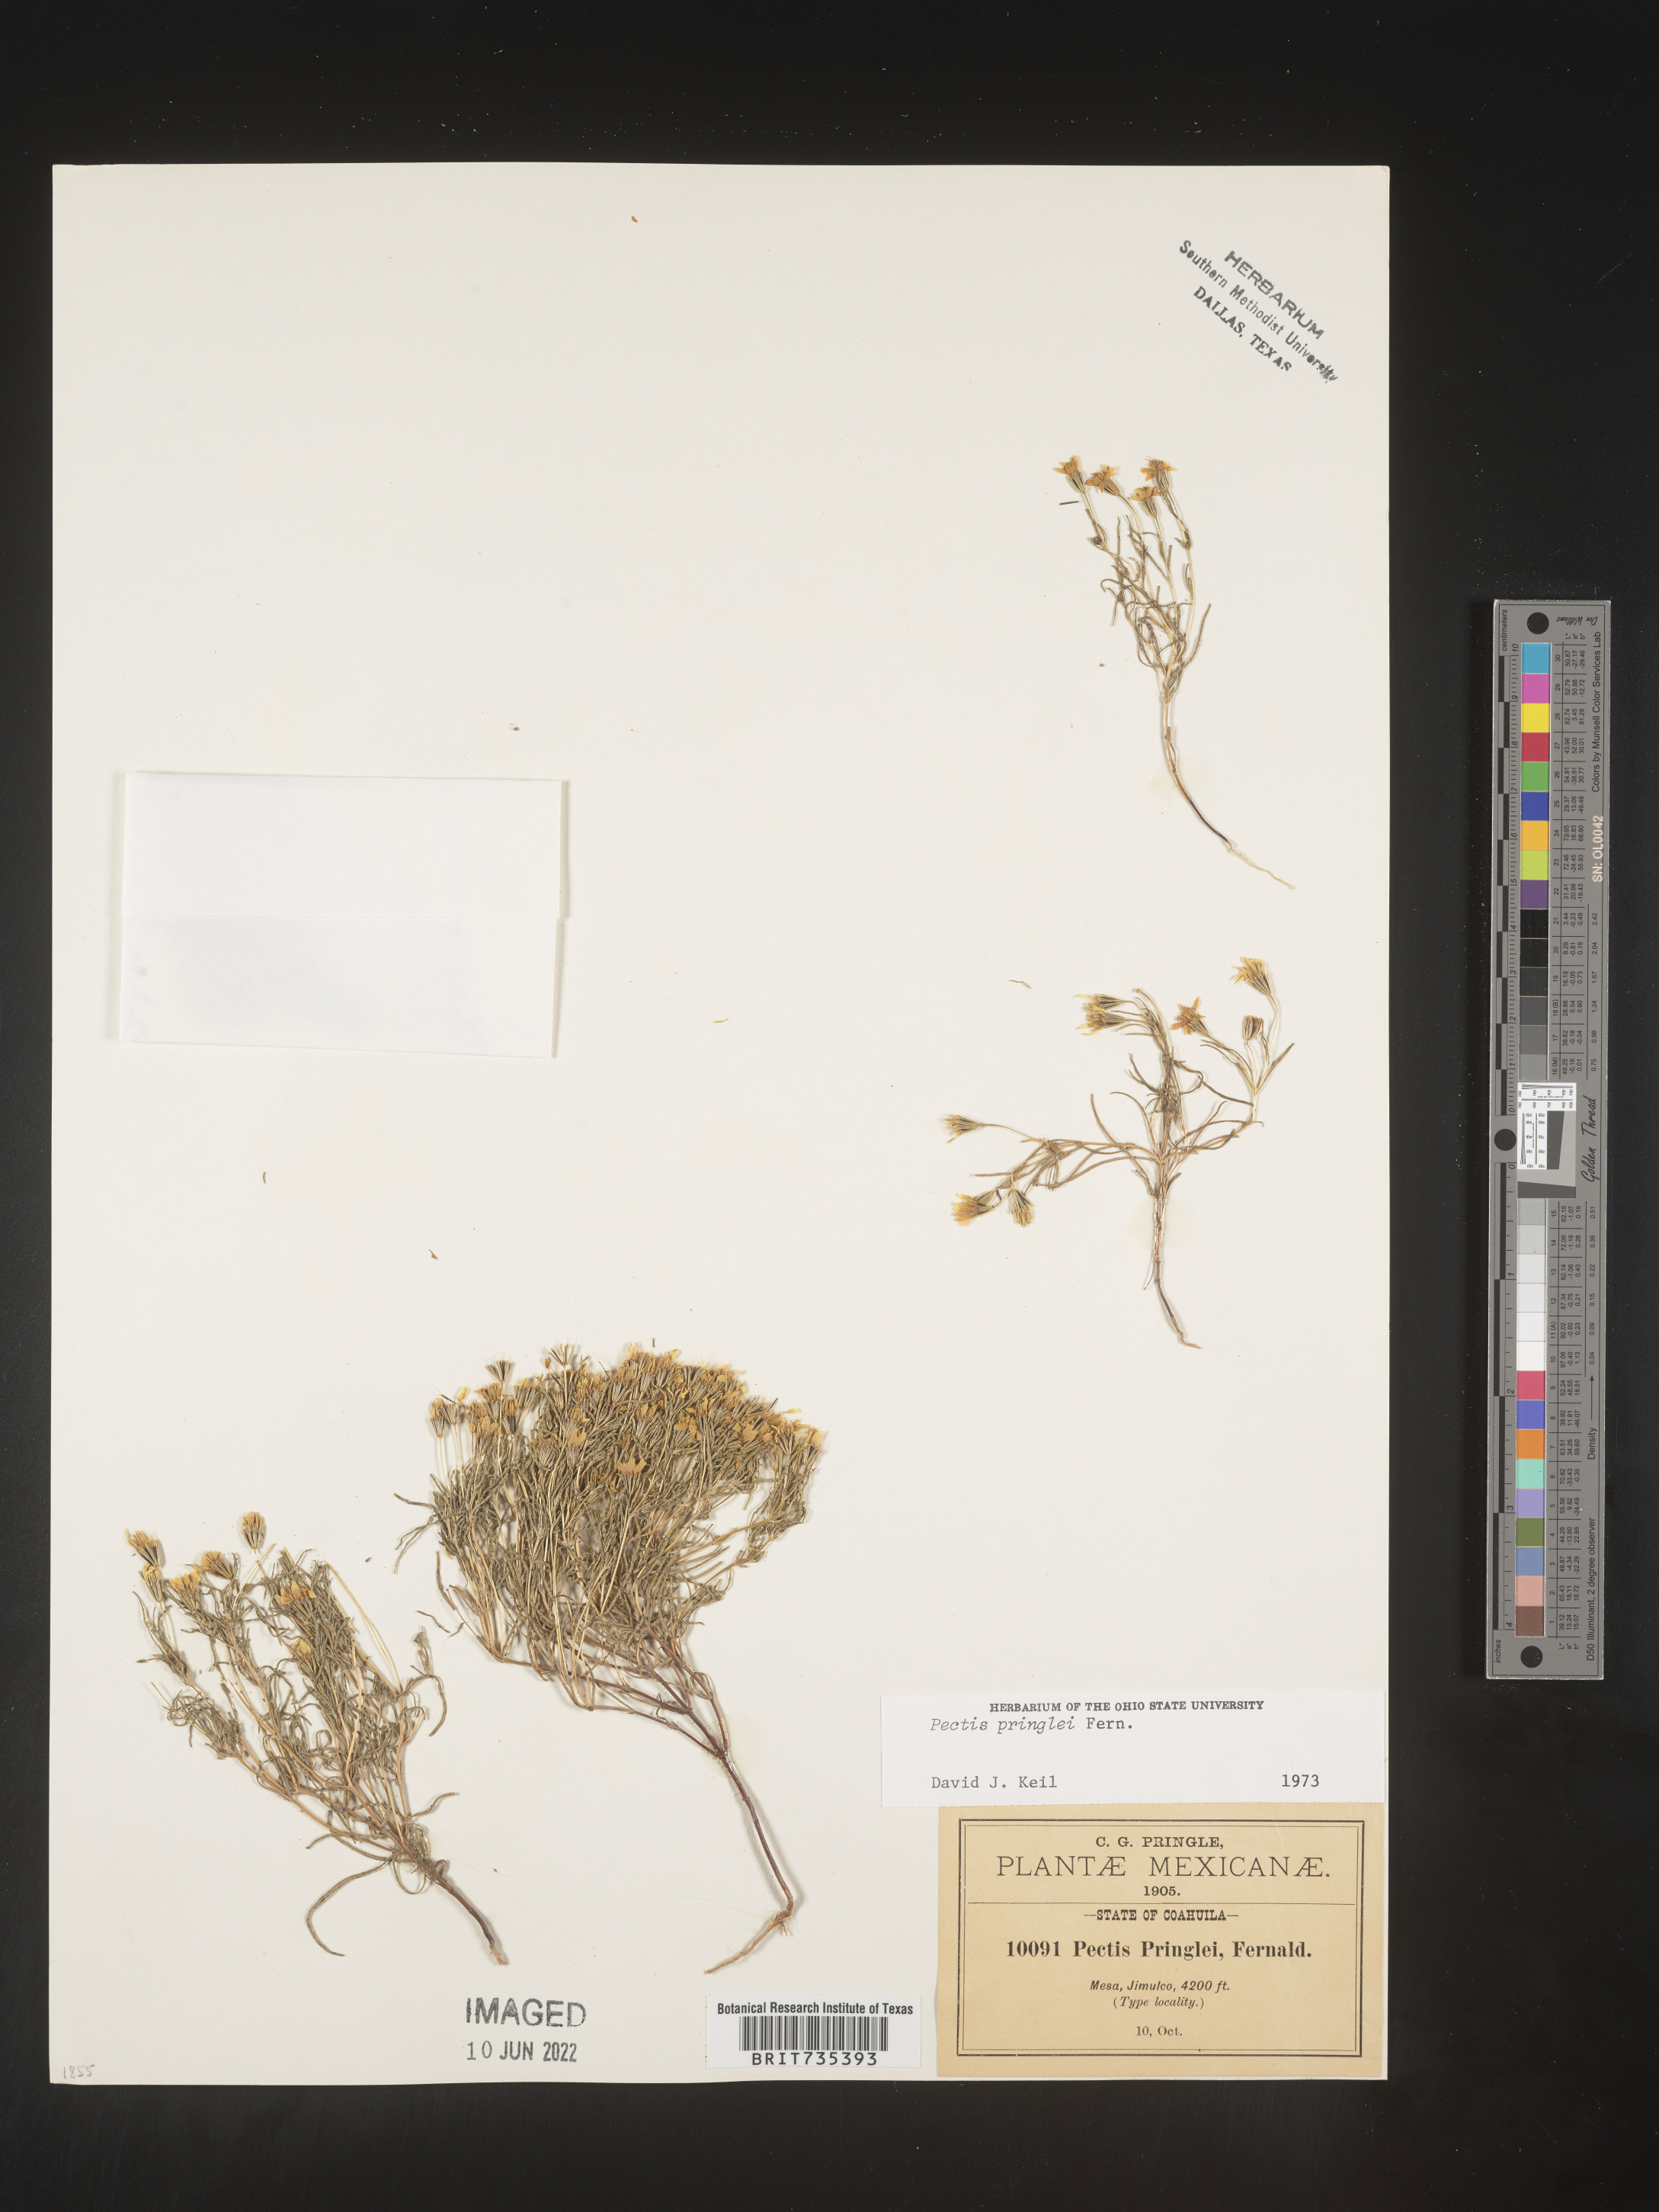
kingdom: Plantae
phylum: Tracheophyta
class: Magnoliopsida
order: Asterales
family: Asteraceae
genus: Pectis
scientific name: Pectis
